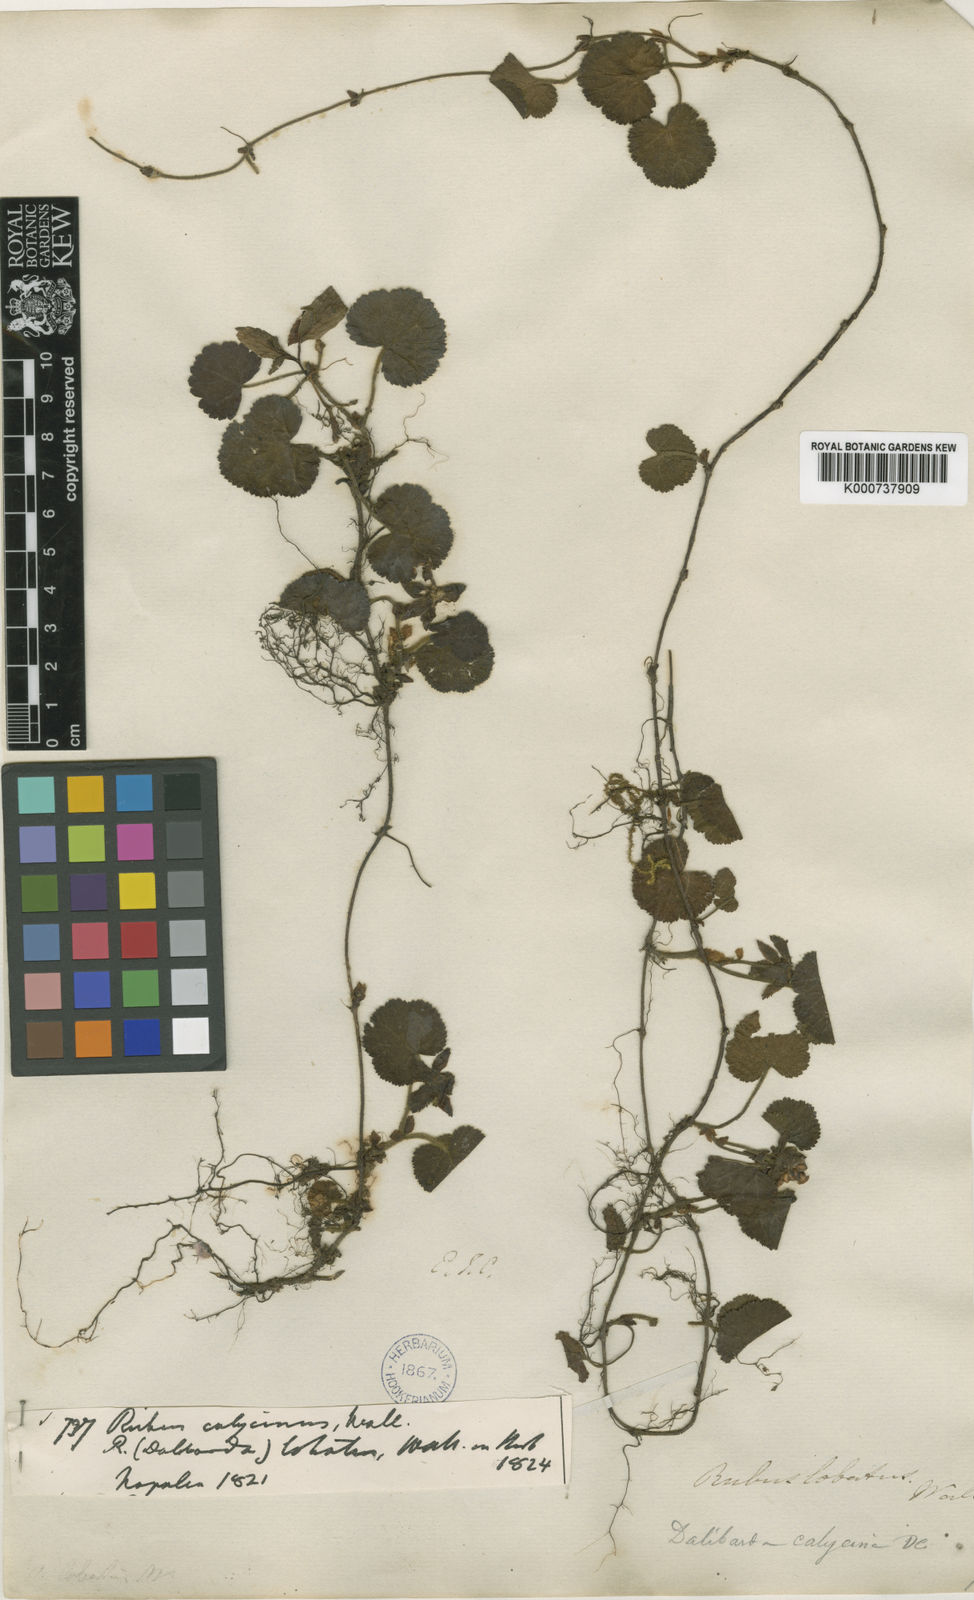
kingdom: Plantae
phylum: Tracheophyta
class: Magnoliopsida
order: Rosales
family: Rosaceae
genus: Rubus
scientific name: Rubus
